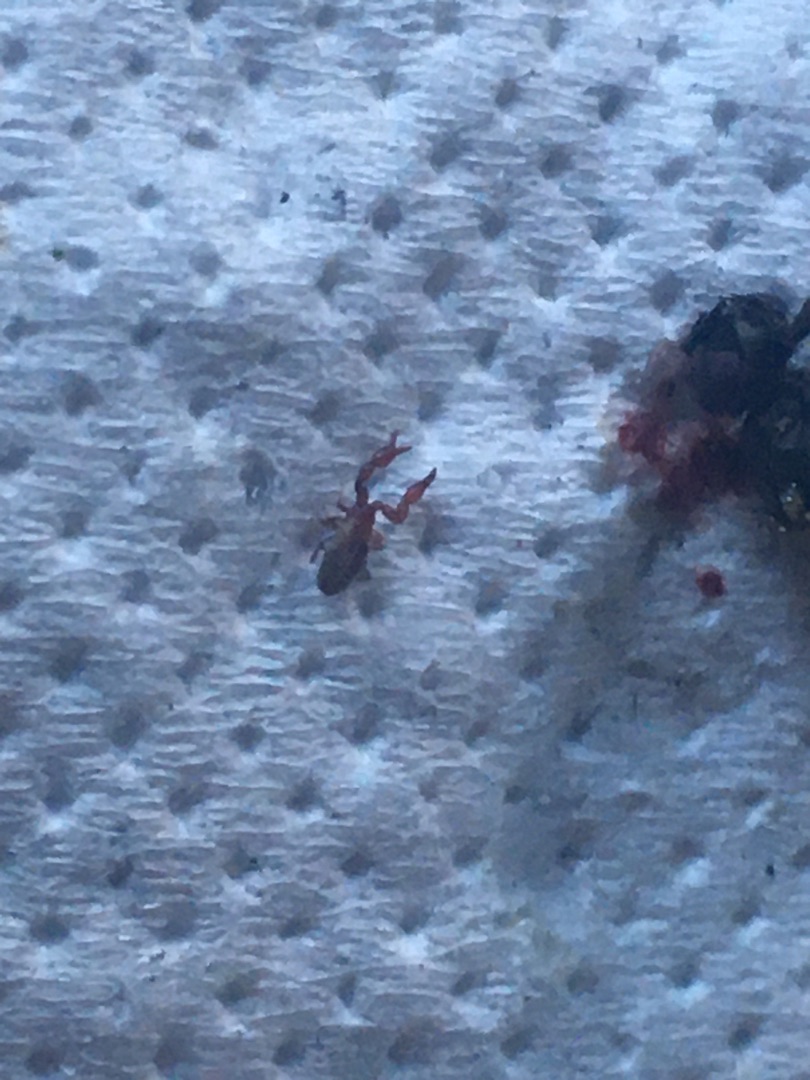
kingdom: Animalia
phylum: Arthropoda
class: Arachnida
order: Pseudoscorpiones
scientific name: Pseudoscorpiones
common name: Mosskorpioner
